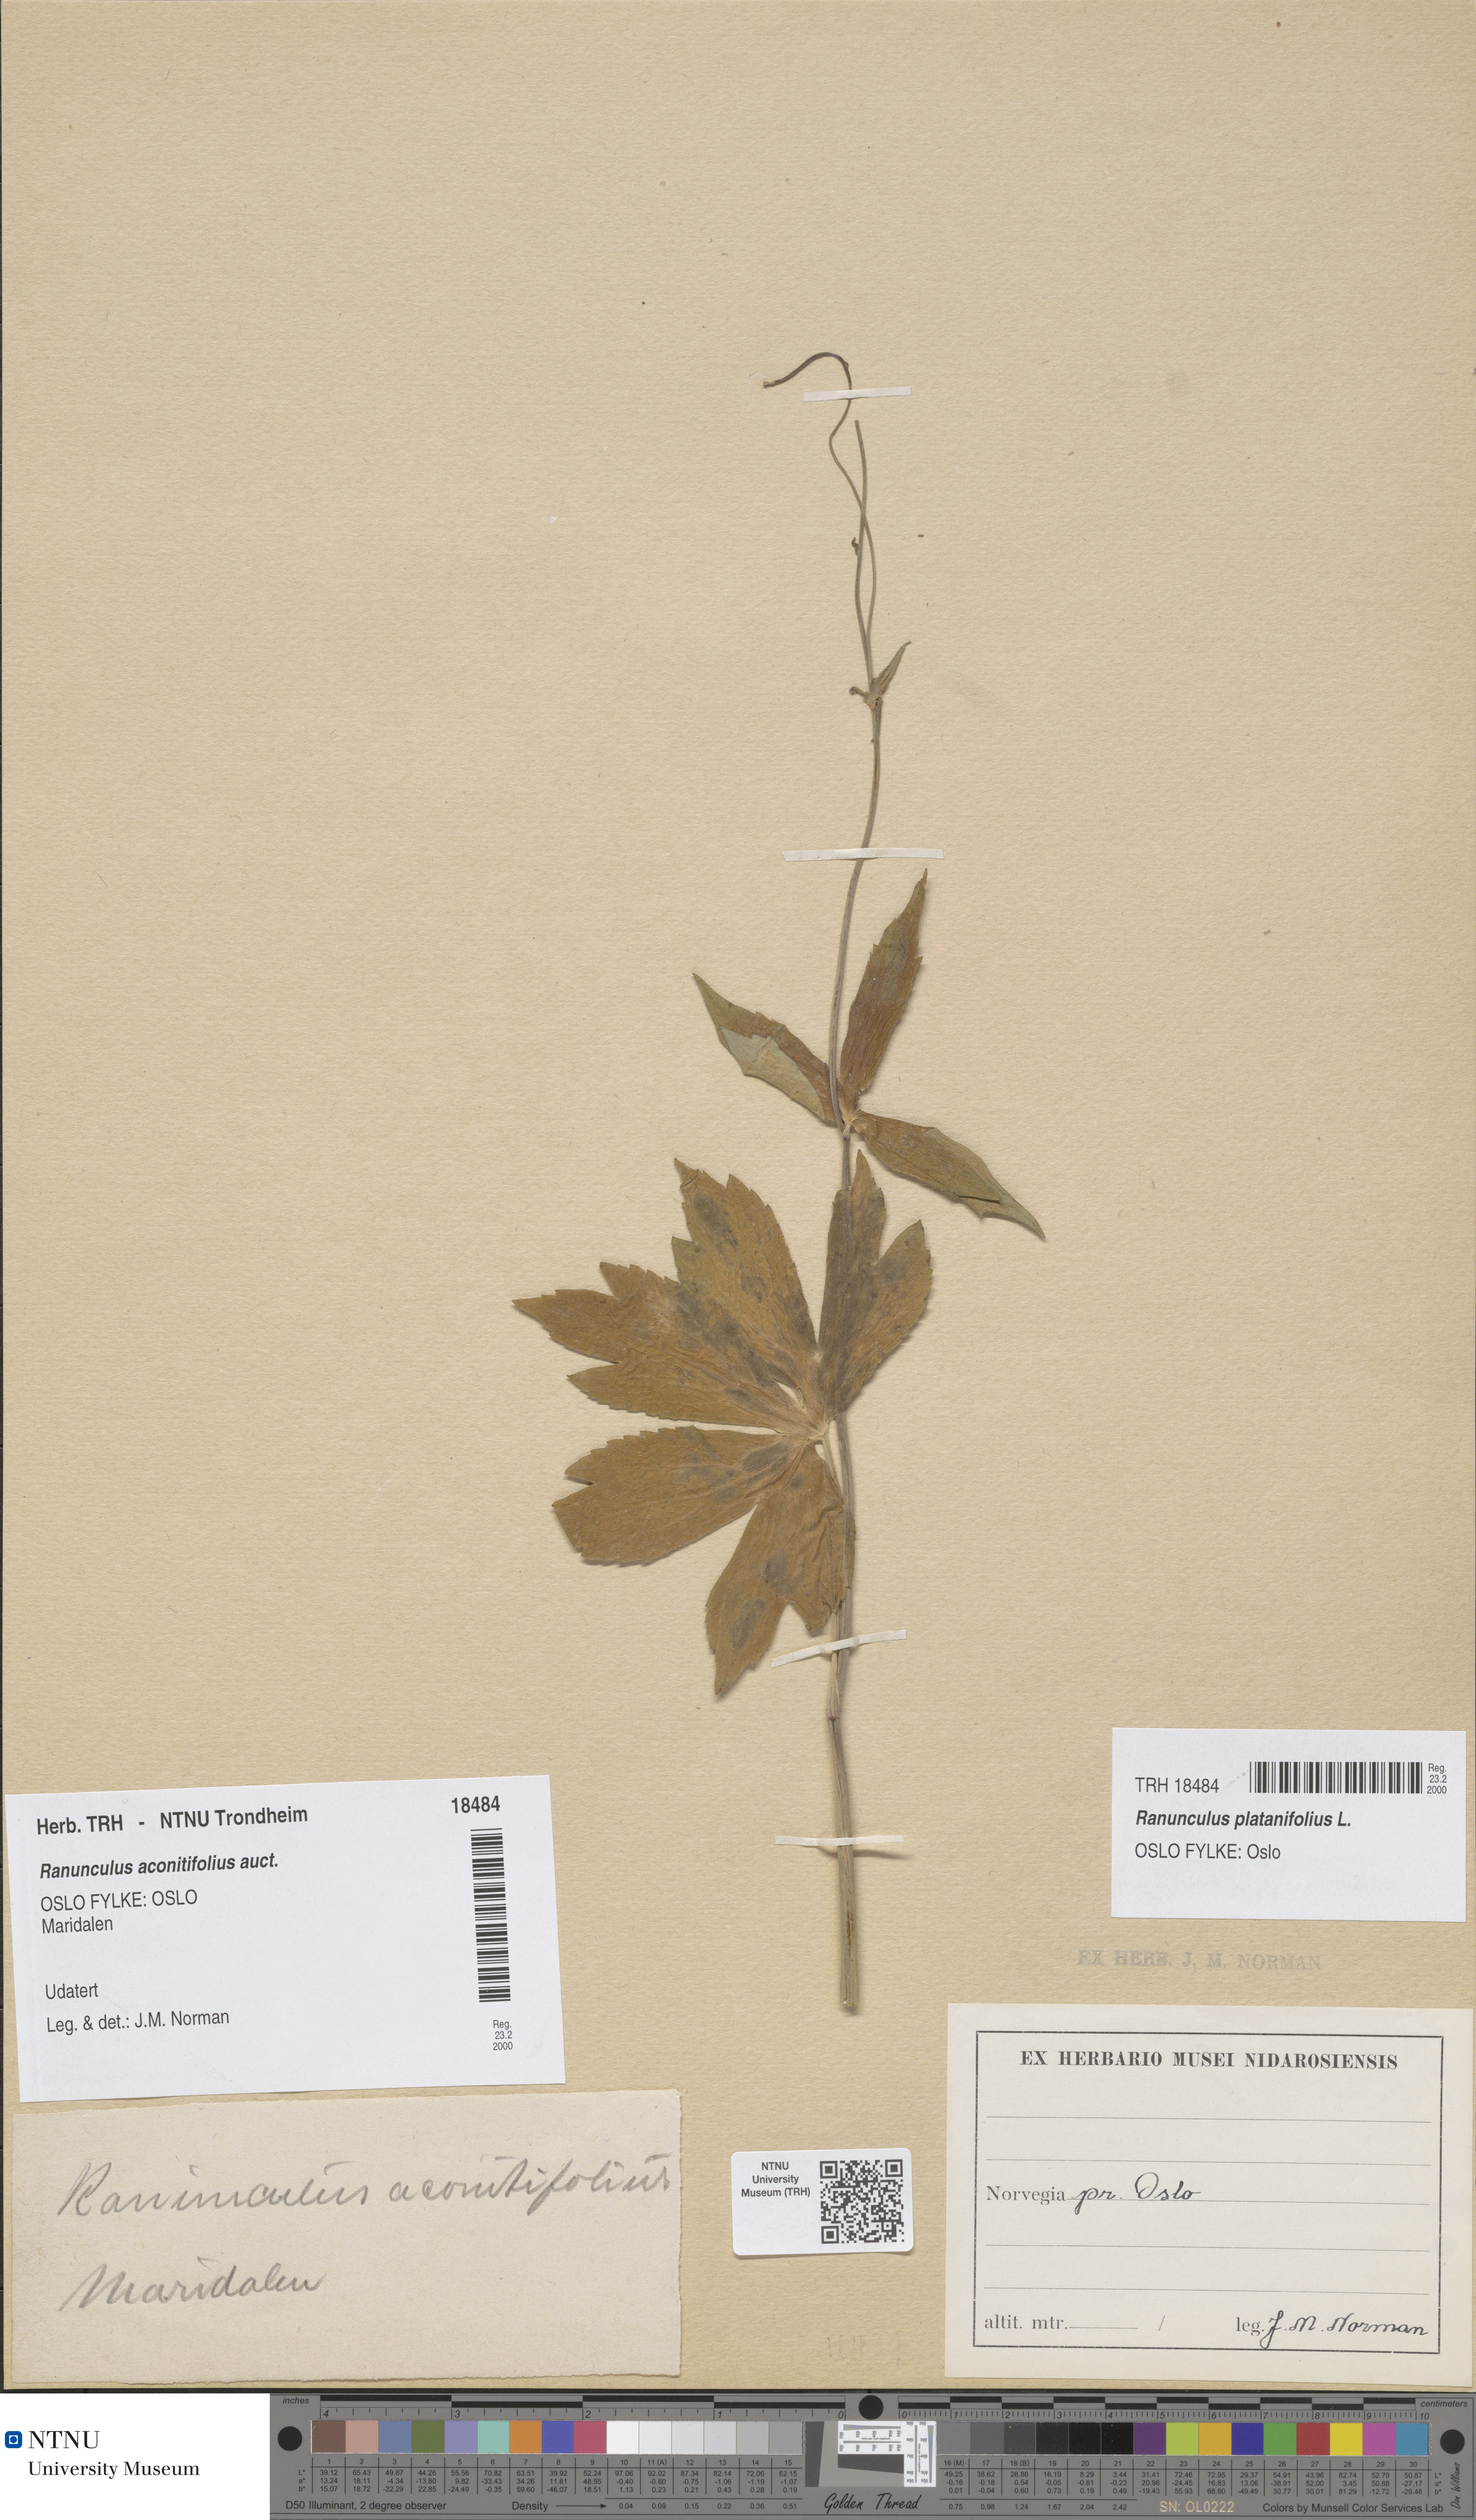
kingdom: Plantae
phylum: Tracheophyta
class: Magnoliopsida
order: Ranunculales
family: Ranunculaceae
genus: Ranunculus
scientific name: Ranunculus platanifolius
